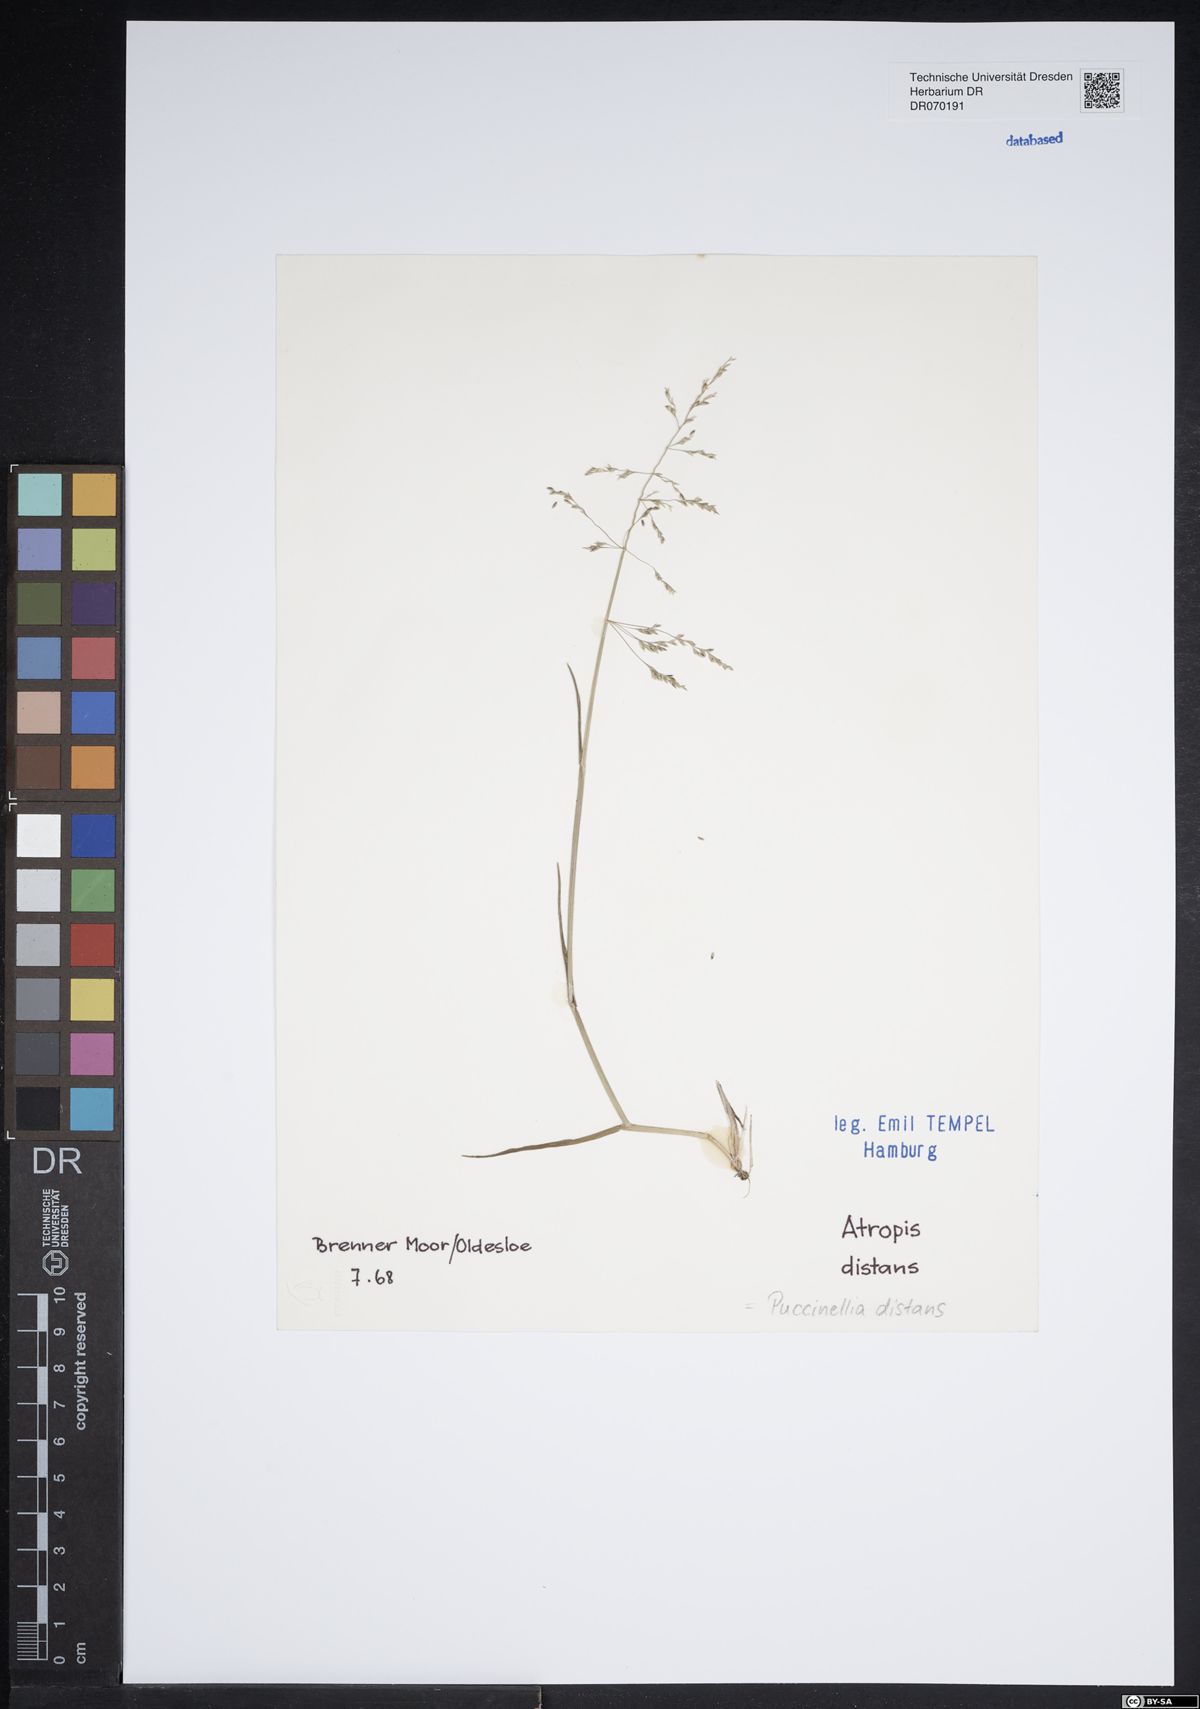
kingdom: Plantae
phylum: Tracheophyta
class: Liliopsida
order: Poales
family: Poaceae
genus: Puccinellia
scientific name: Puccinellia distans
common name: Weeping alkaligrass
